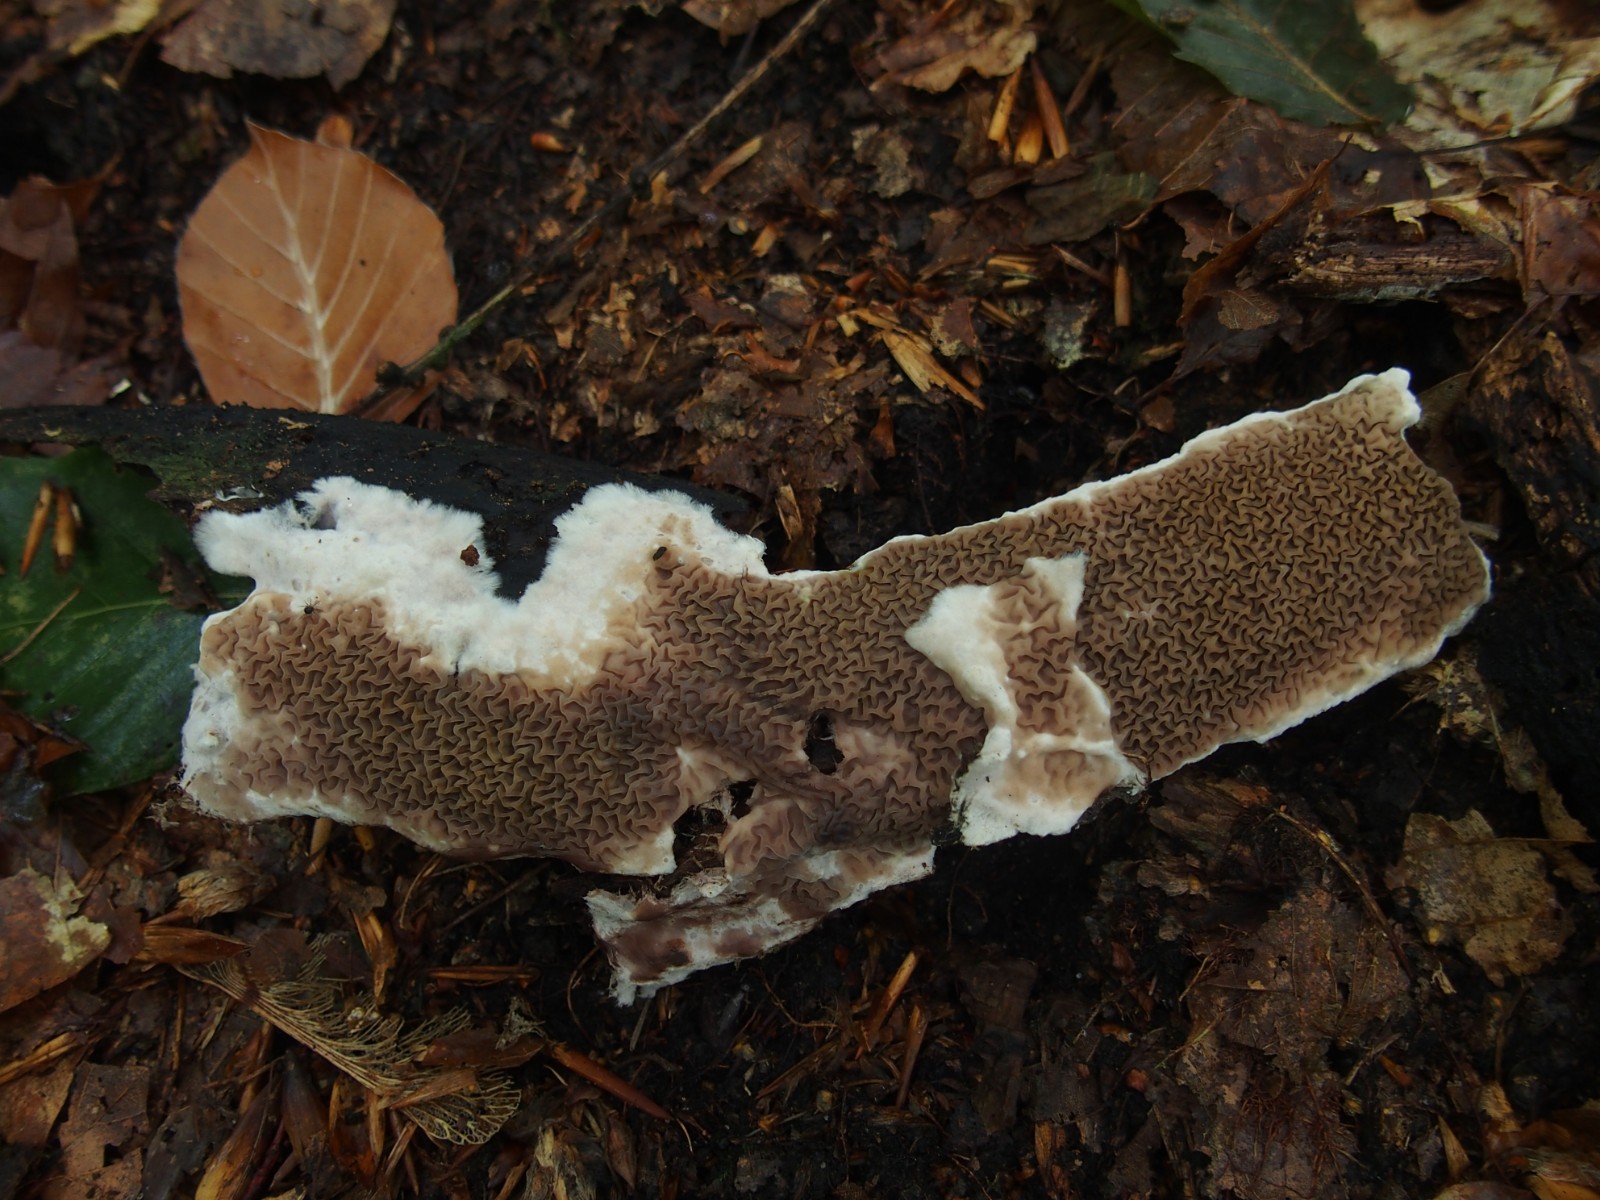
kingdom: Fungi
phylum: Basidiomycota
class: Agaricomycetes
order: Boletales
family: Serpulaceae
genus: Serpula
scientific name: Serpula himantioides
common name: tyndkødet hussvamp
